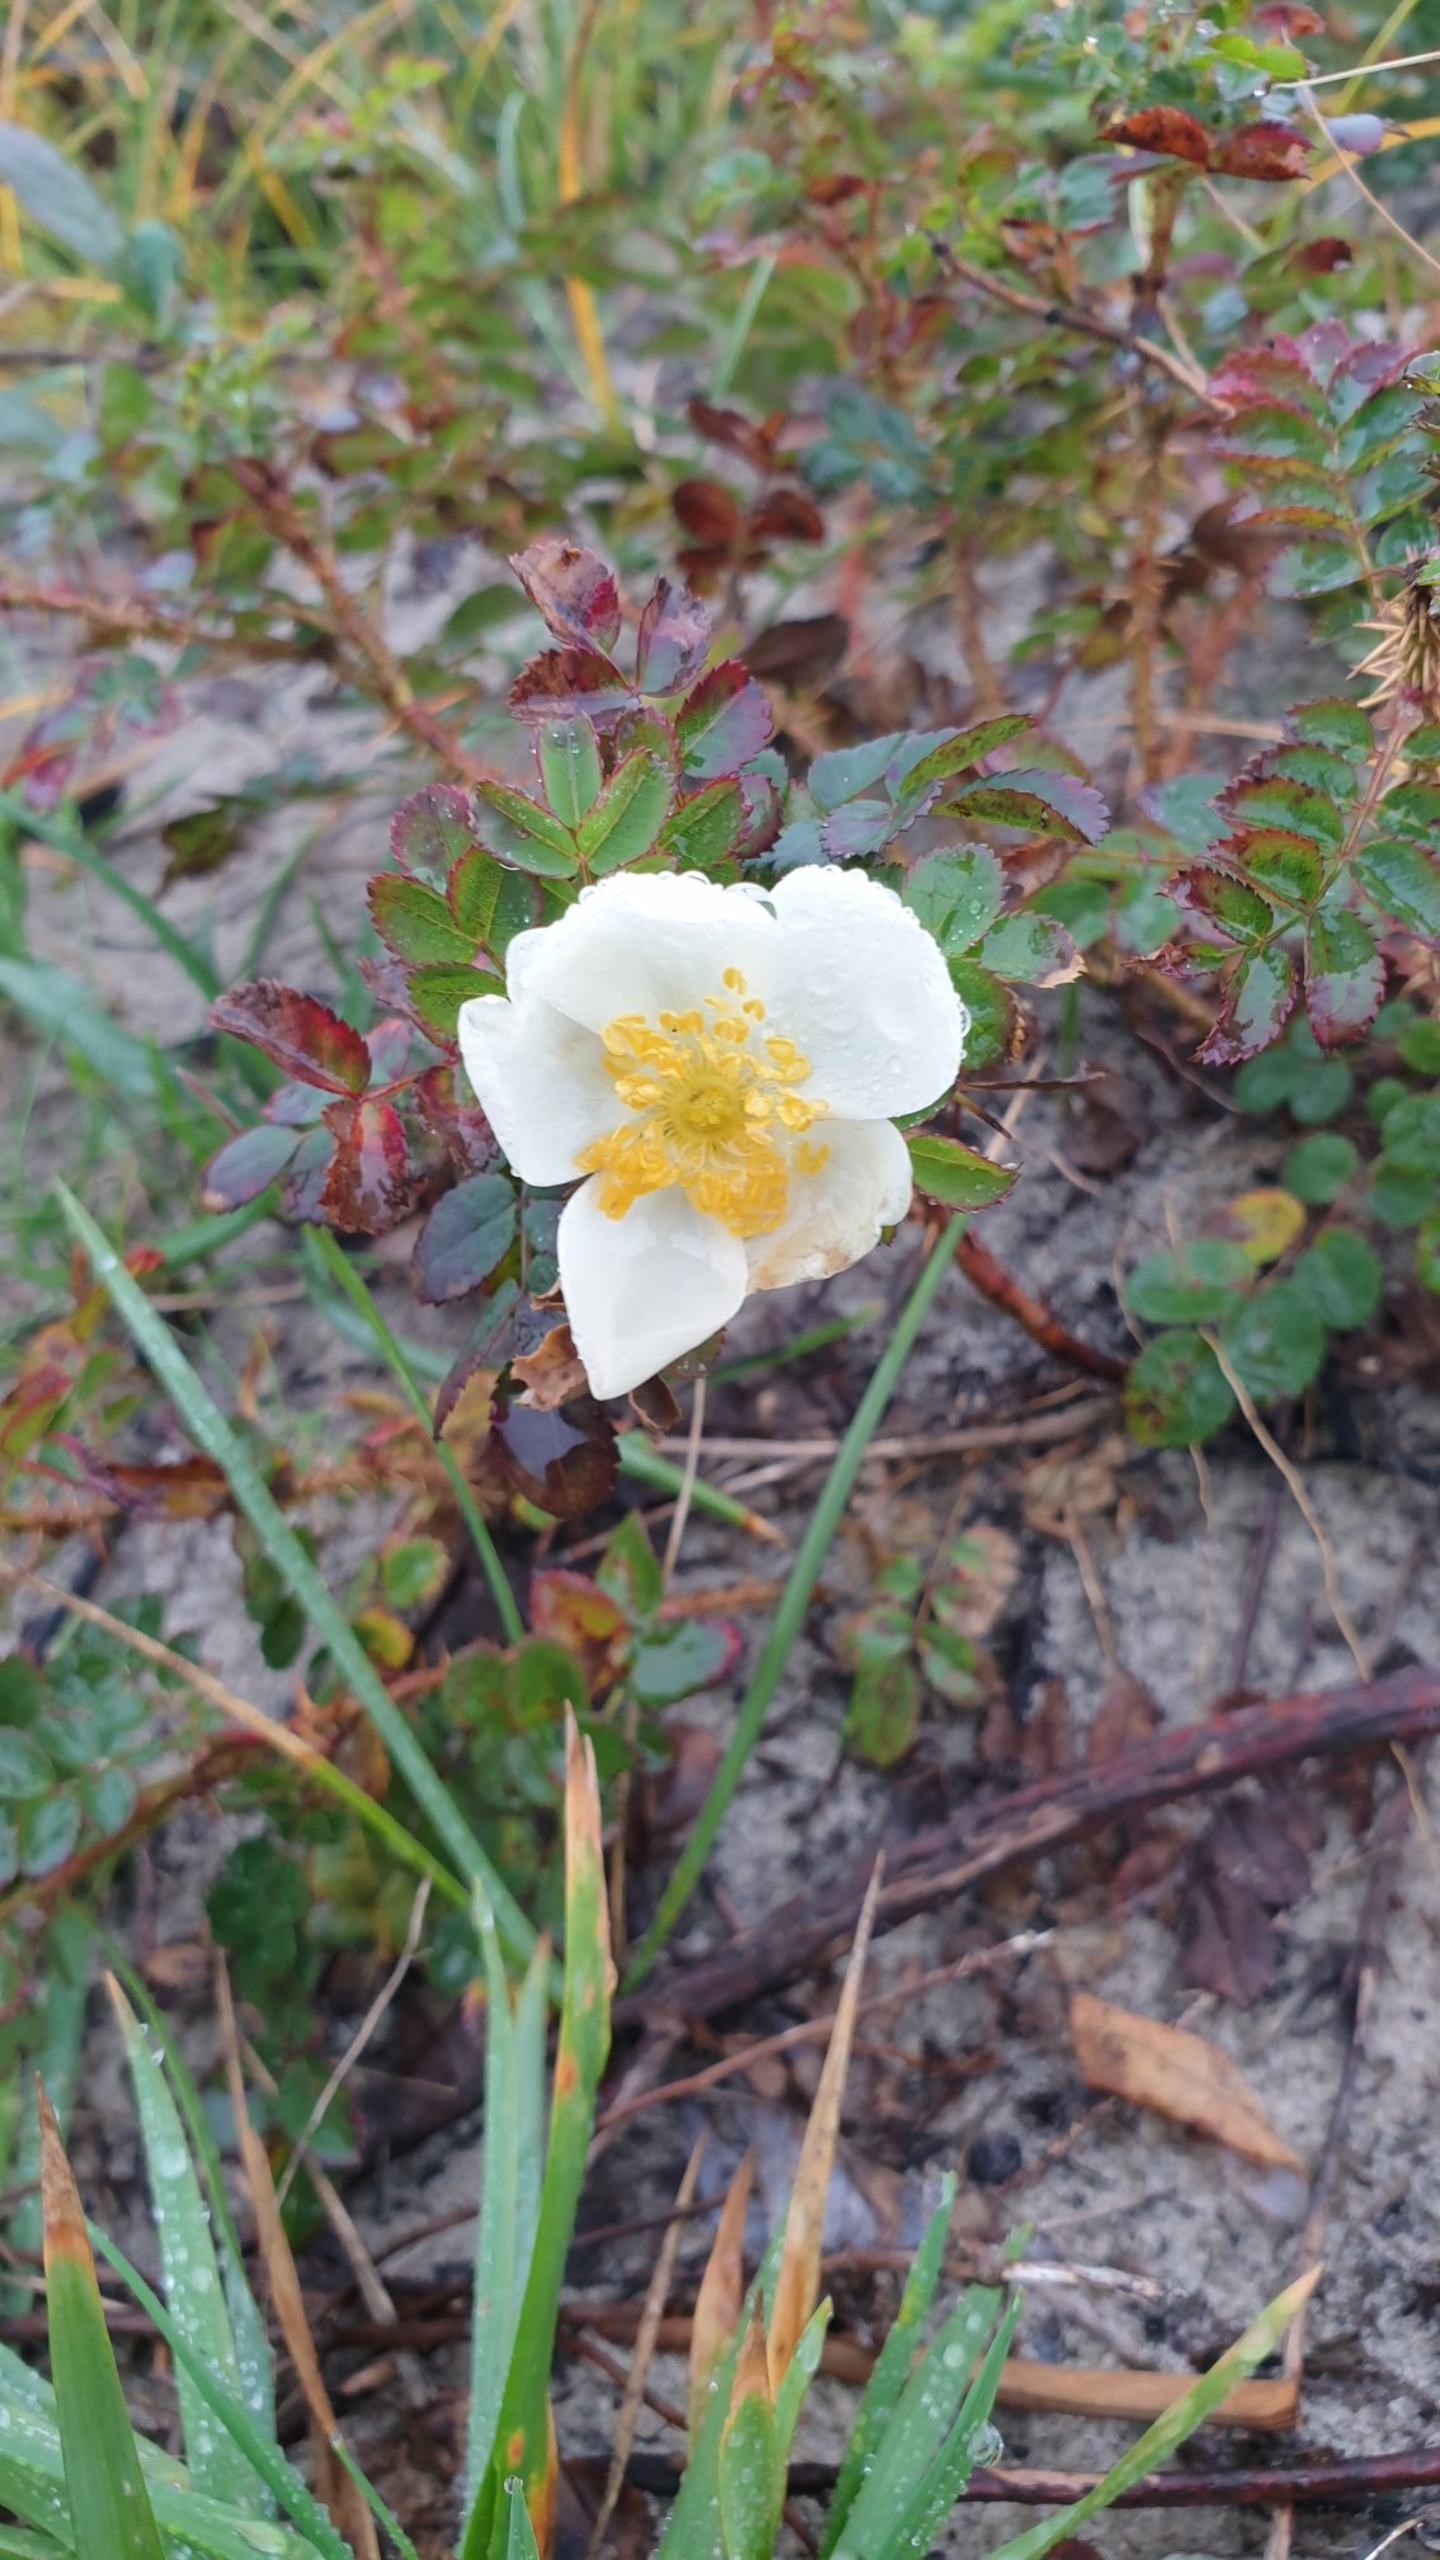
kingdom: Plantae
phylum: Tracheophyta
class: Magnoliopsida
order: Rosales
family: Rosaceae
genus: Rosa
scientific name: Rosa spinosissima
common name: Klit-rose
